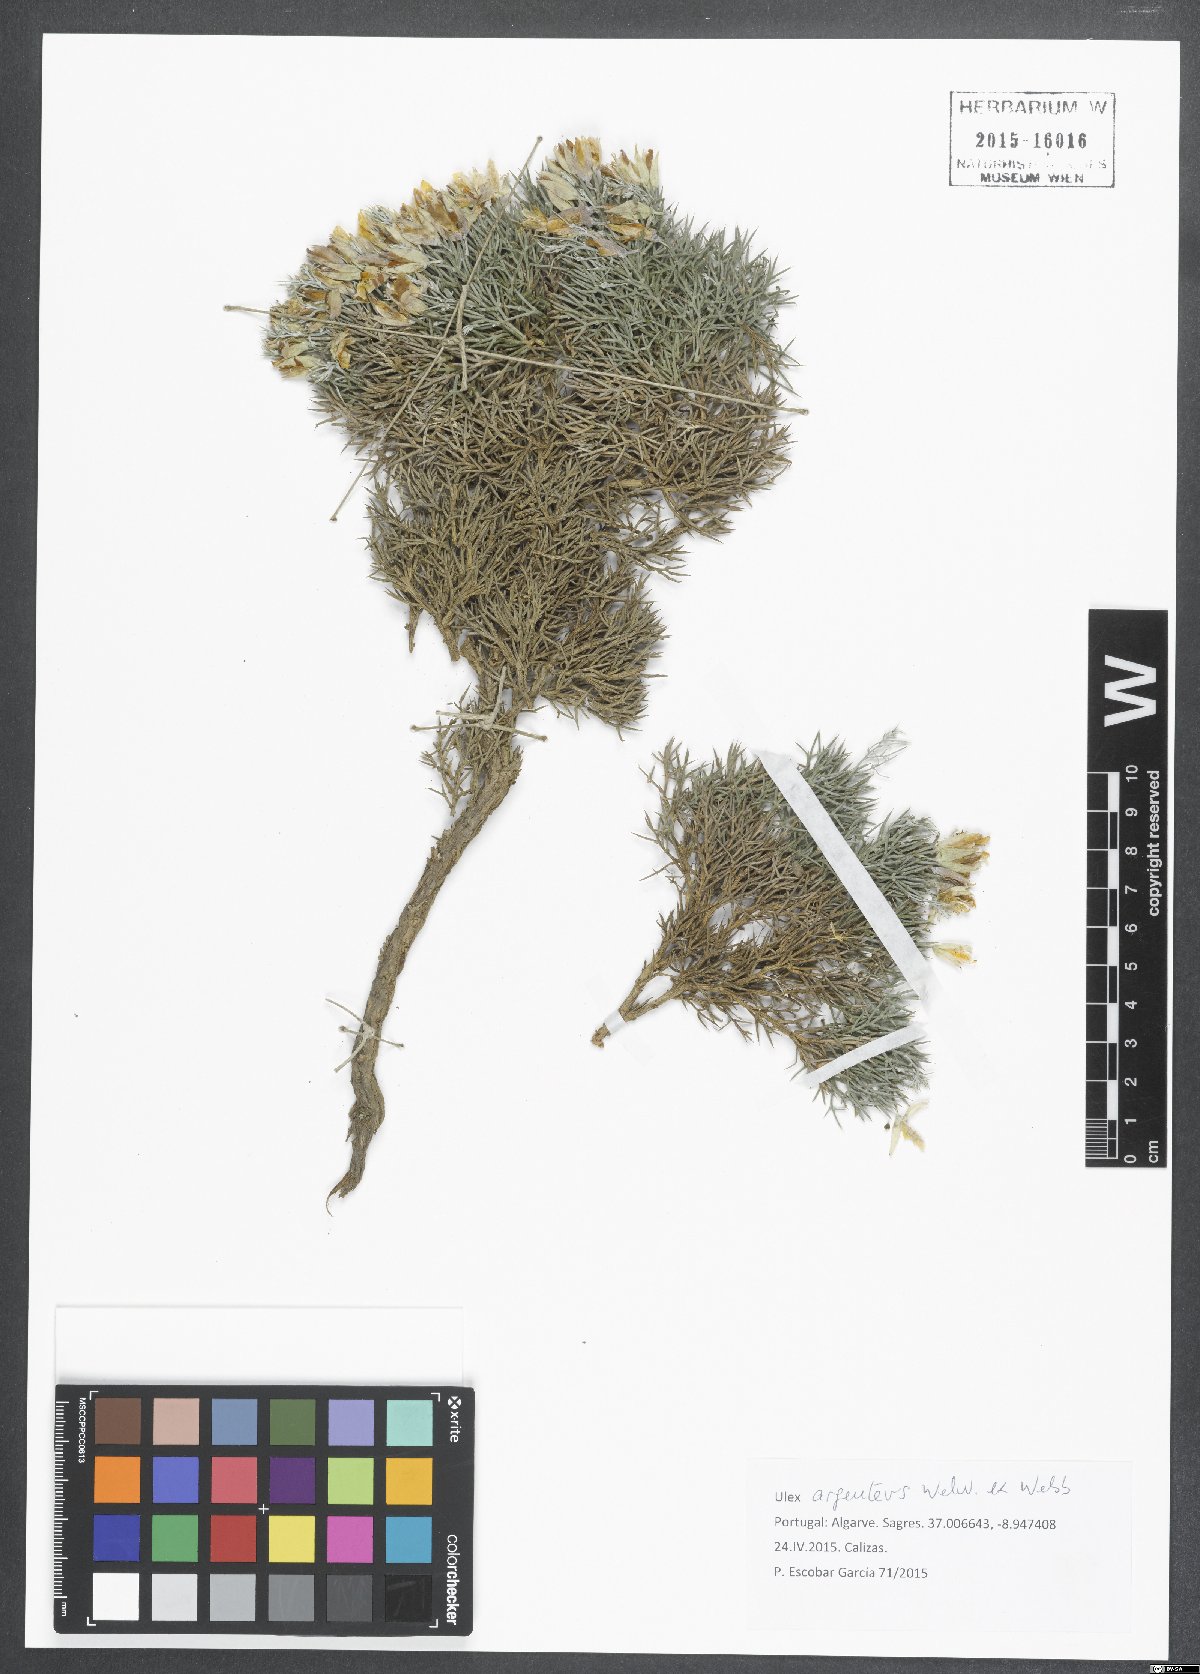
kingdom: Plantae
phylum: Tracheophyta
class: Magnoliopsida
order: Fabales
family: Fabaceae
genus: Ulex
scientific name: Ulex argenteus
